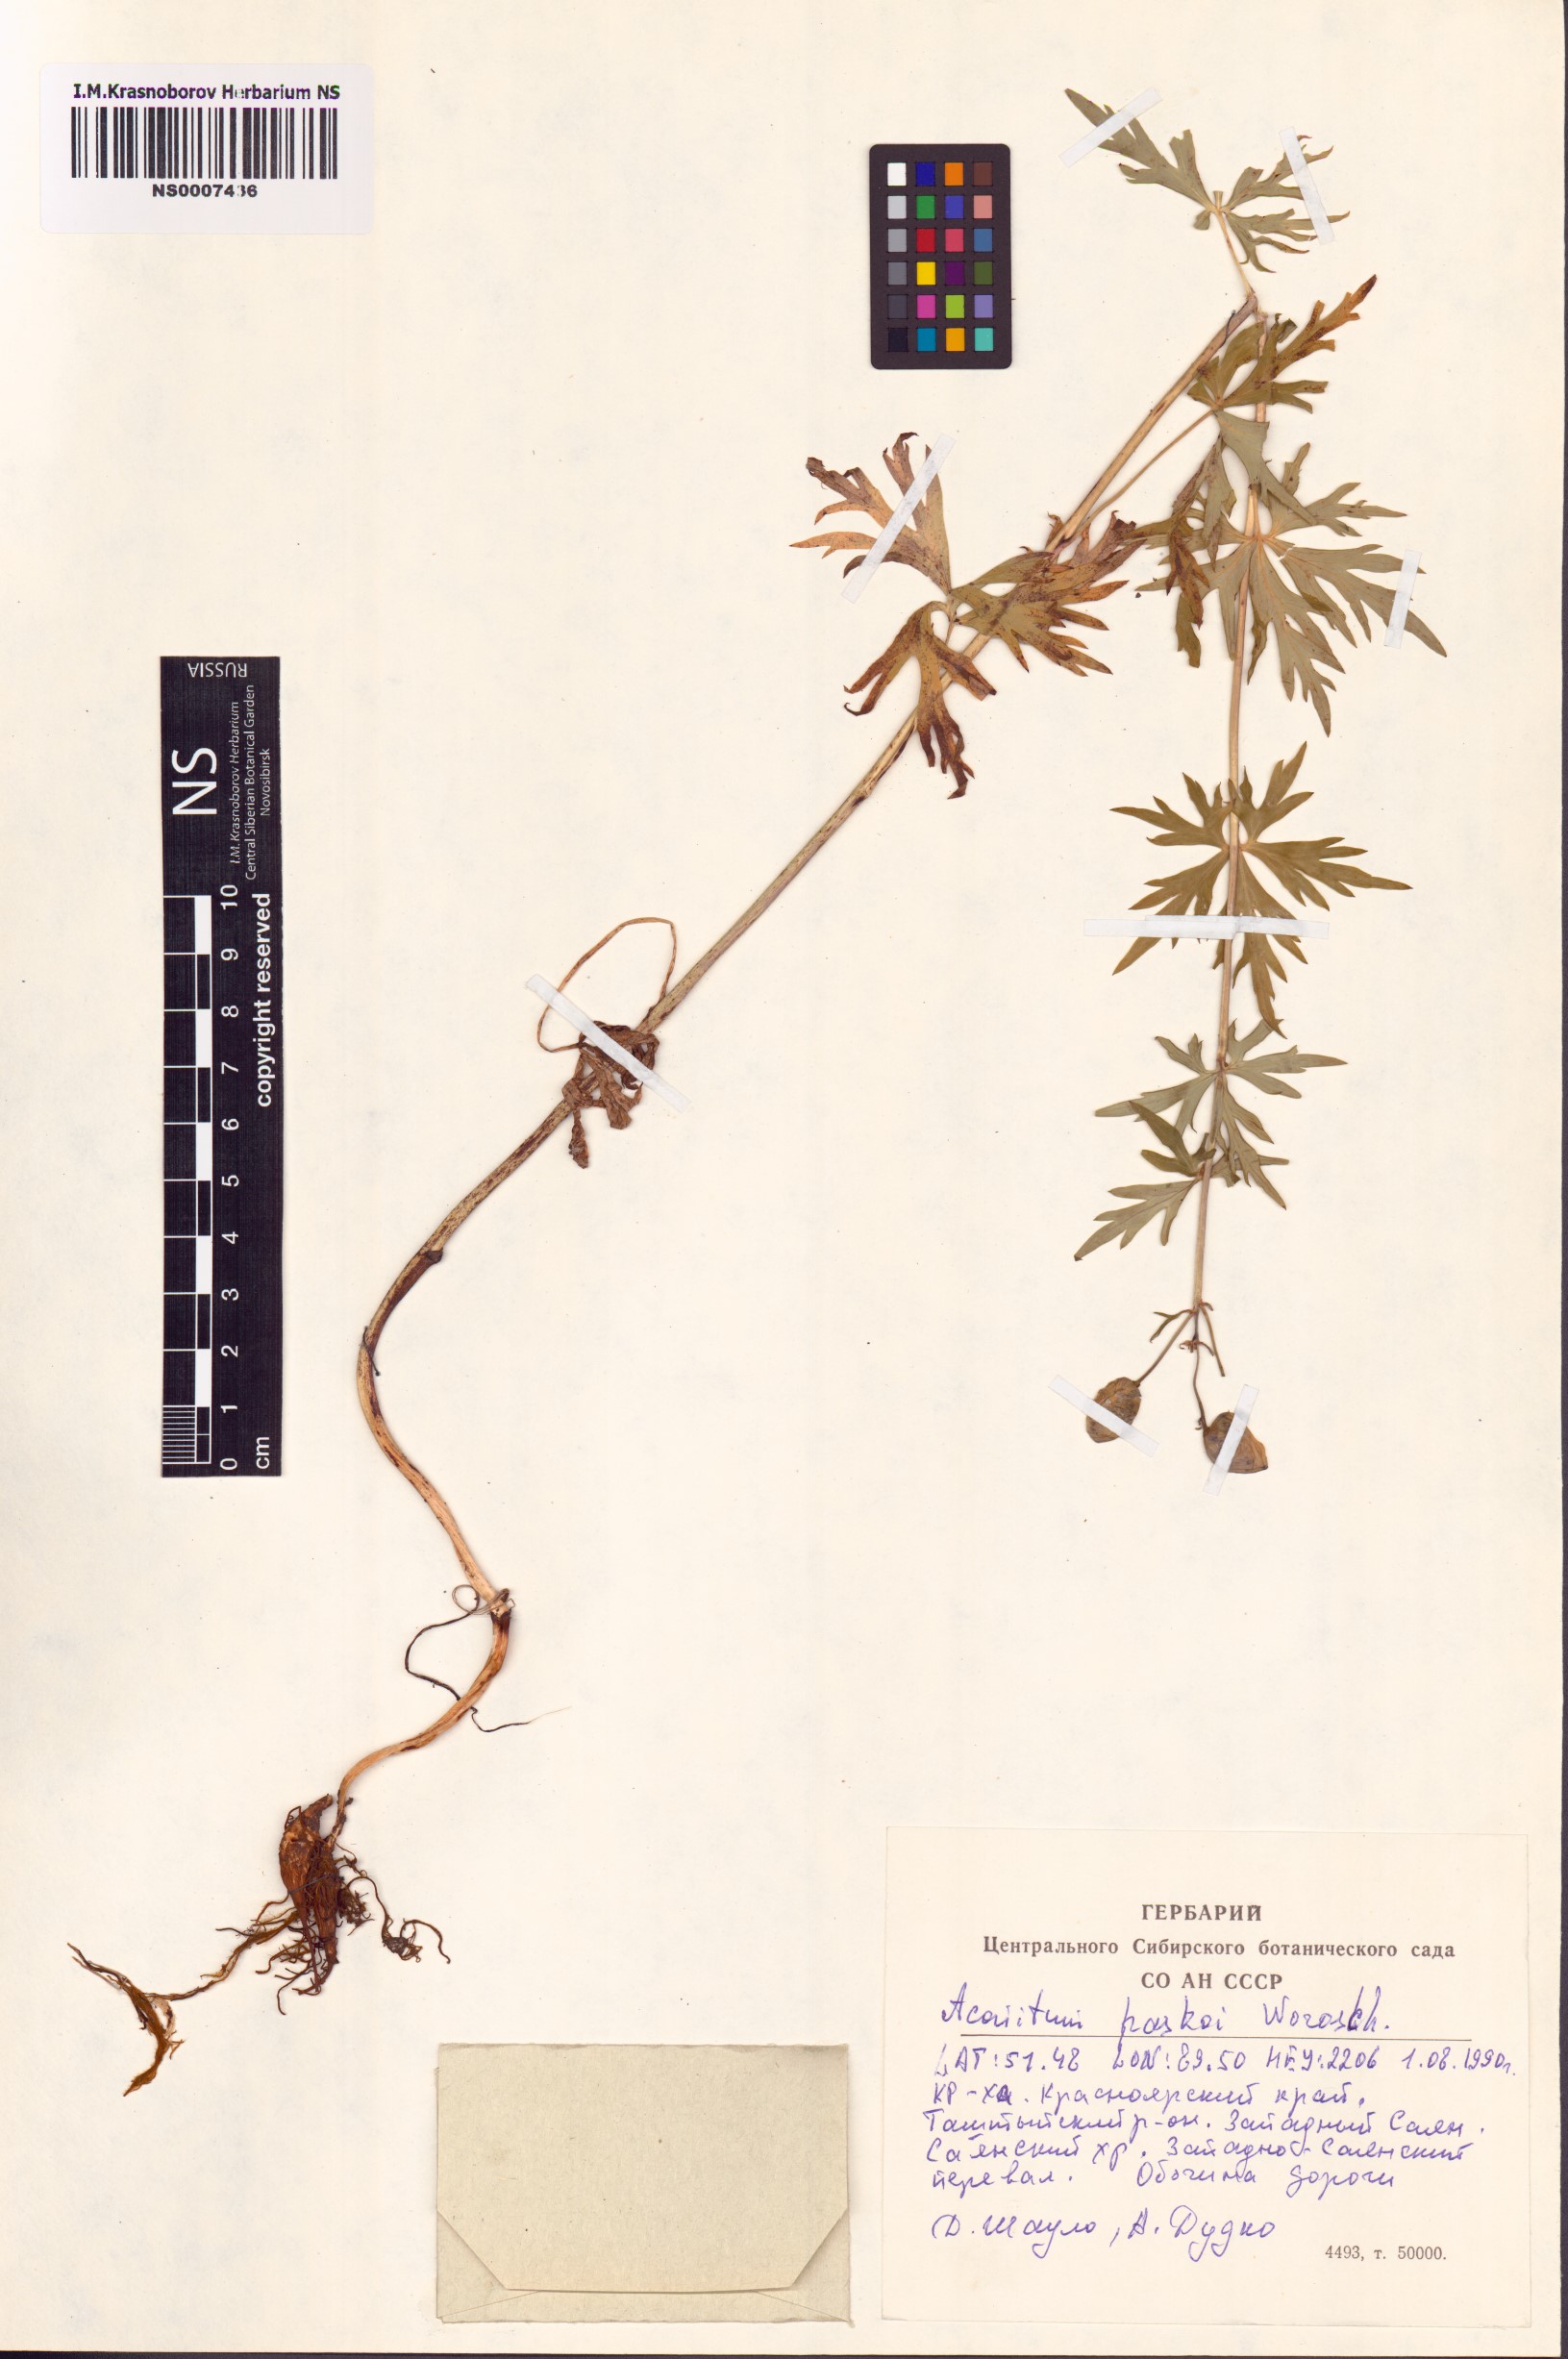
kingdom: Plantae
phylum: Tracheophyta
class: Magnoliopsida
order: Ranunculales
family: Ranunculaceae
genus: Aconitum
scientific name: Aconitum pascoi
